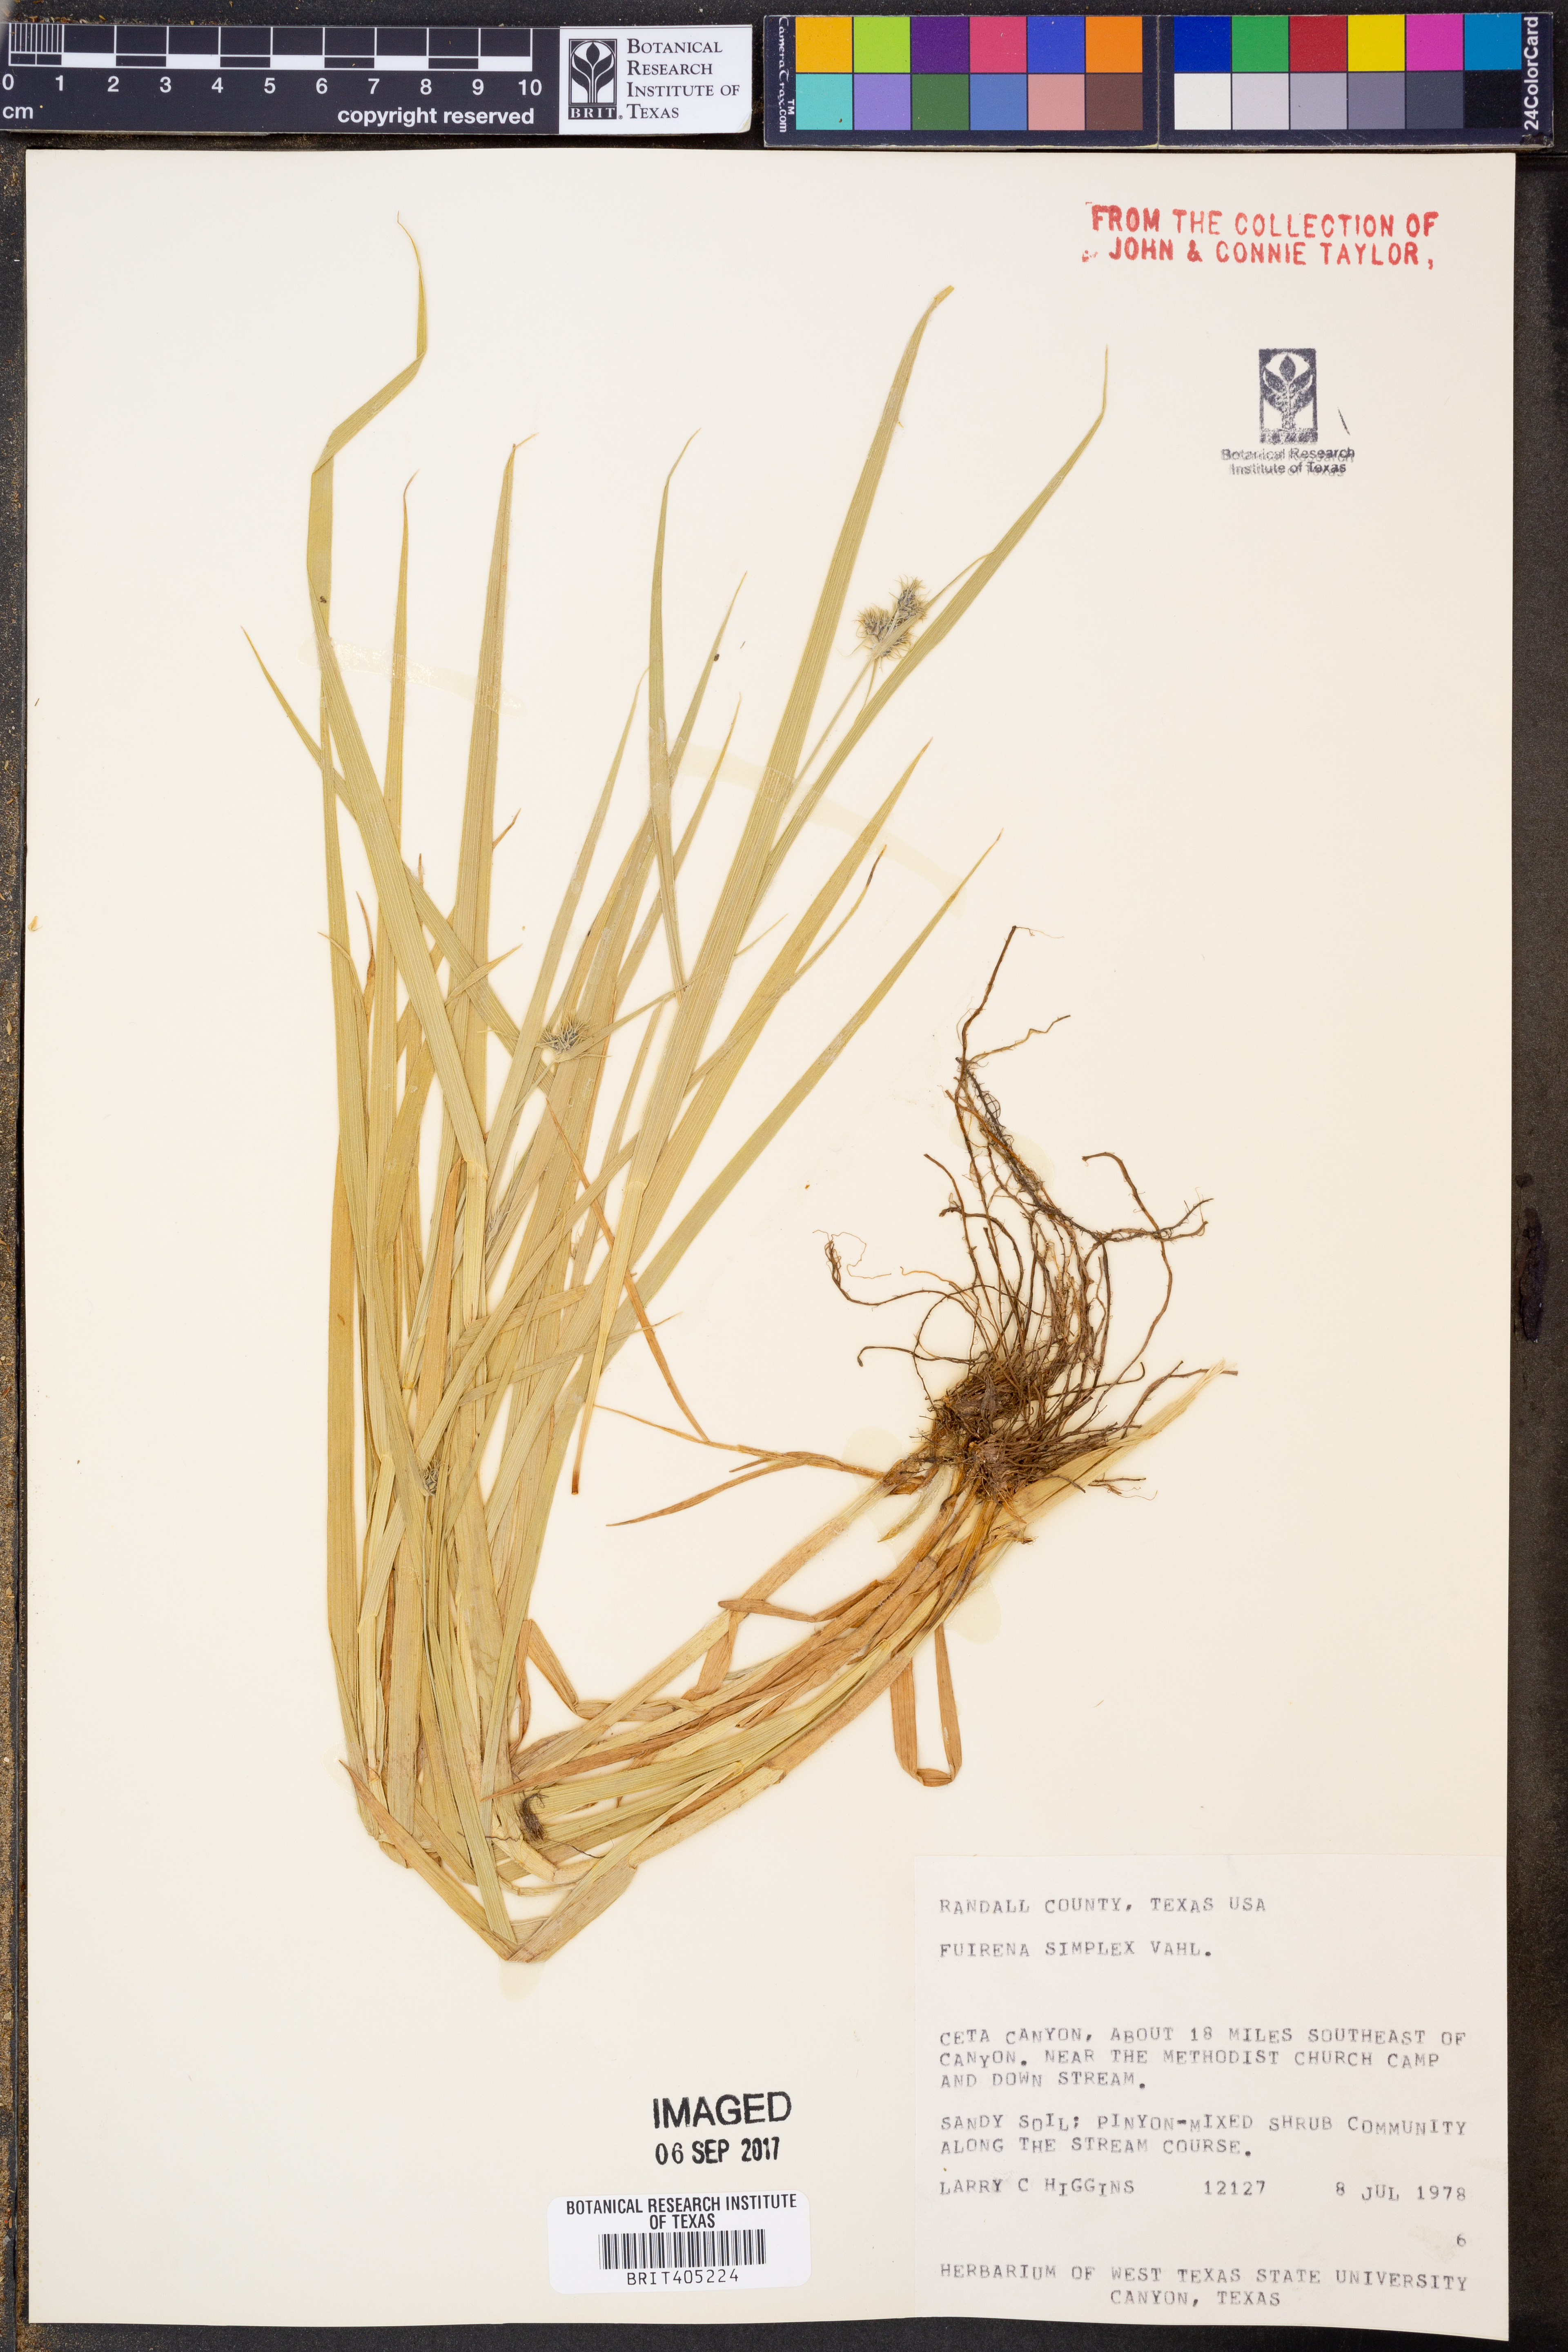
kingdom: Plantae
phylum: Tracheophyta
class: Liliopsida
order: Poales
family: Cyperaceae
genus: Fuirena
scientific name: Fuirena simplex
